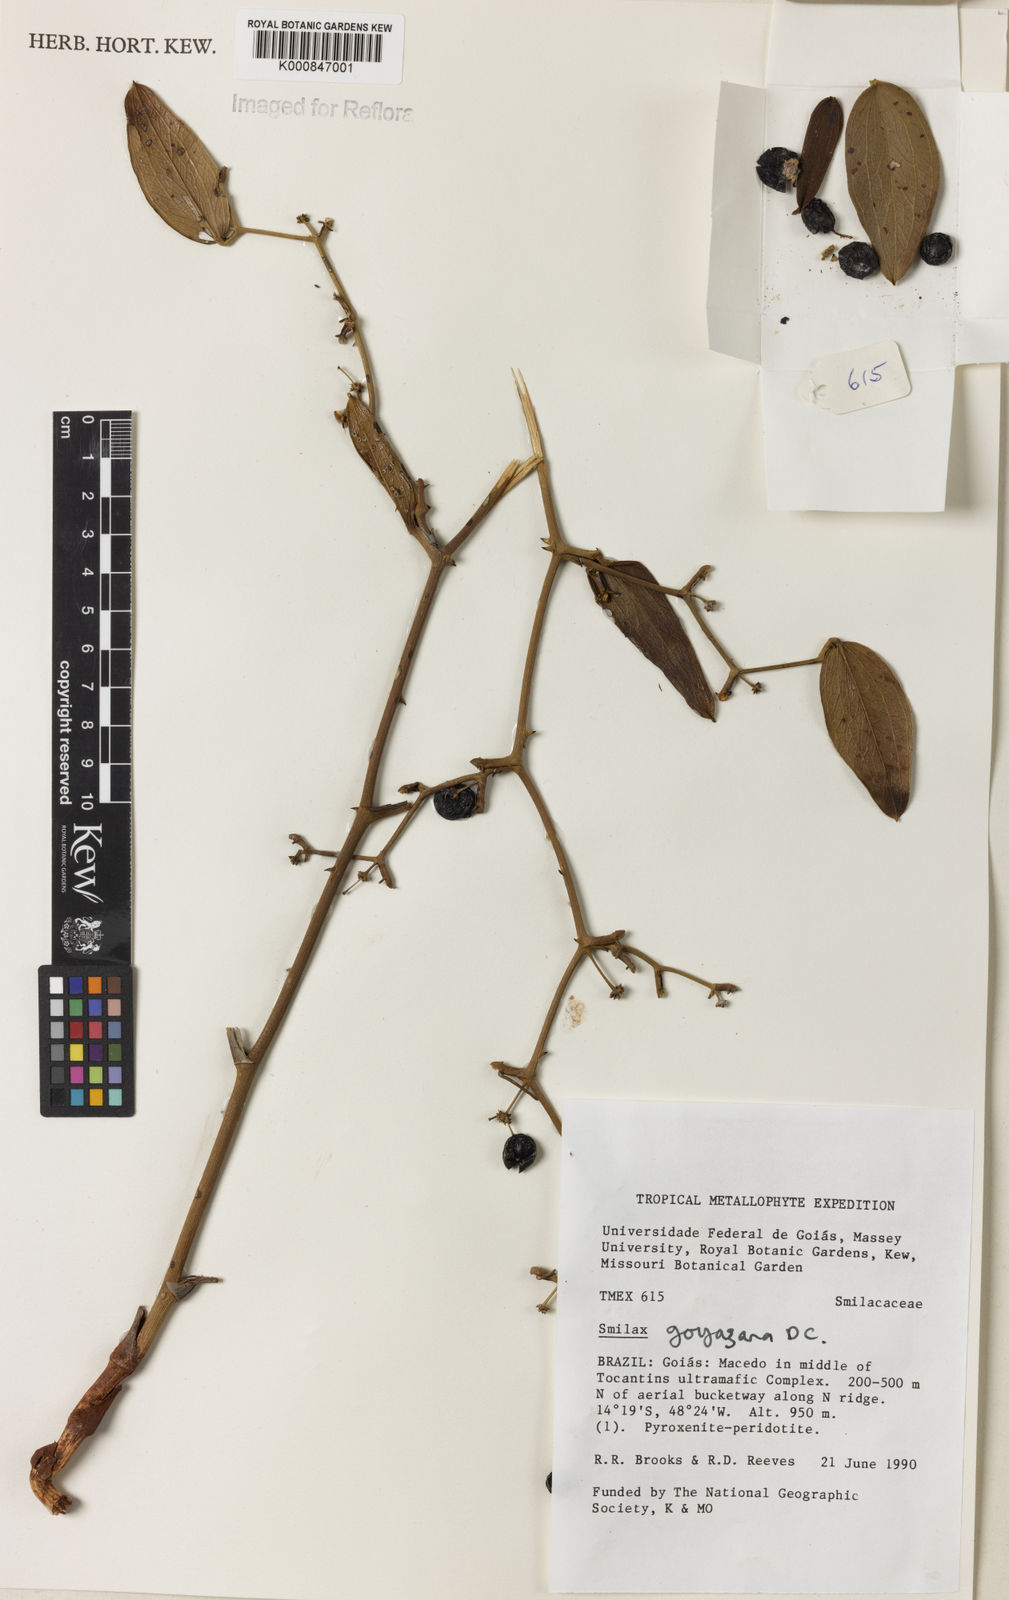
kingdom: Plantae
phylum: Tracheophyta
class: Liliopsida
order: Liliales
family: Smilacaceae
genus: Smilax
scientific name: Smilax goyazana
